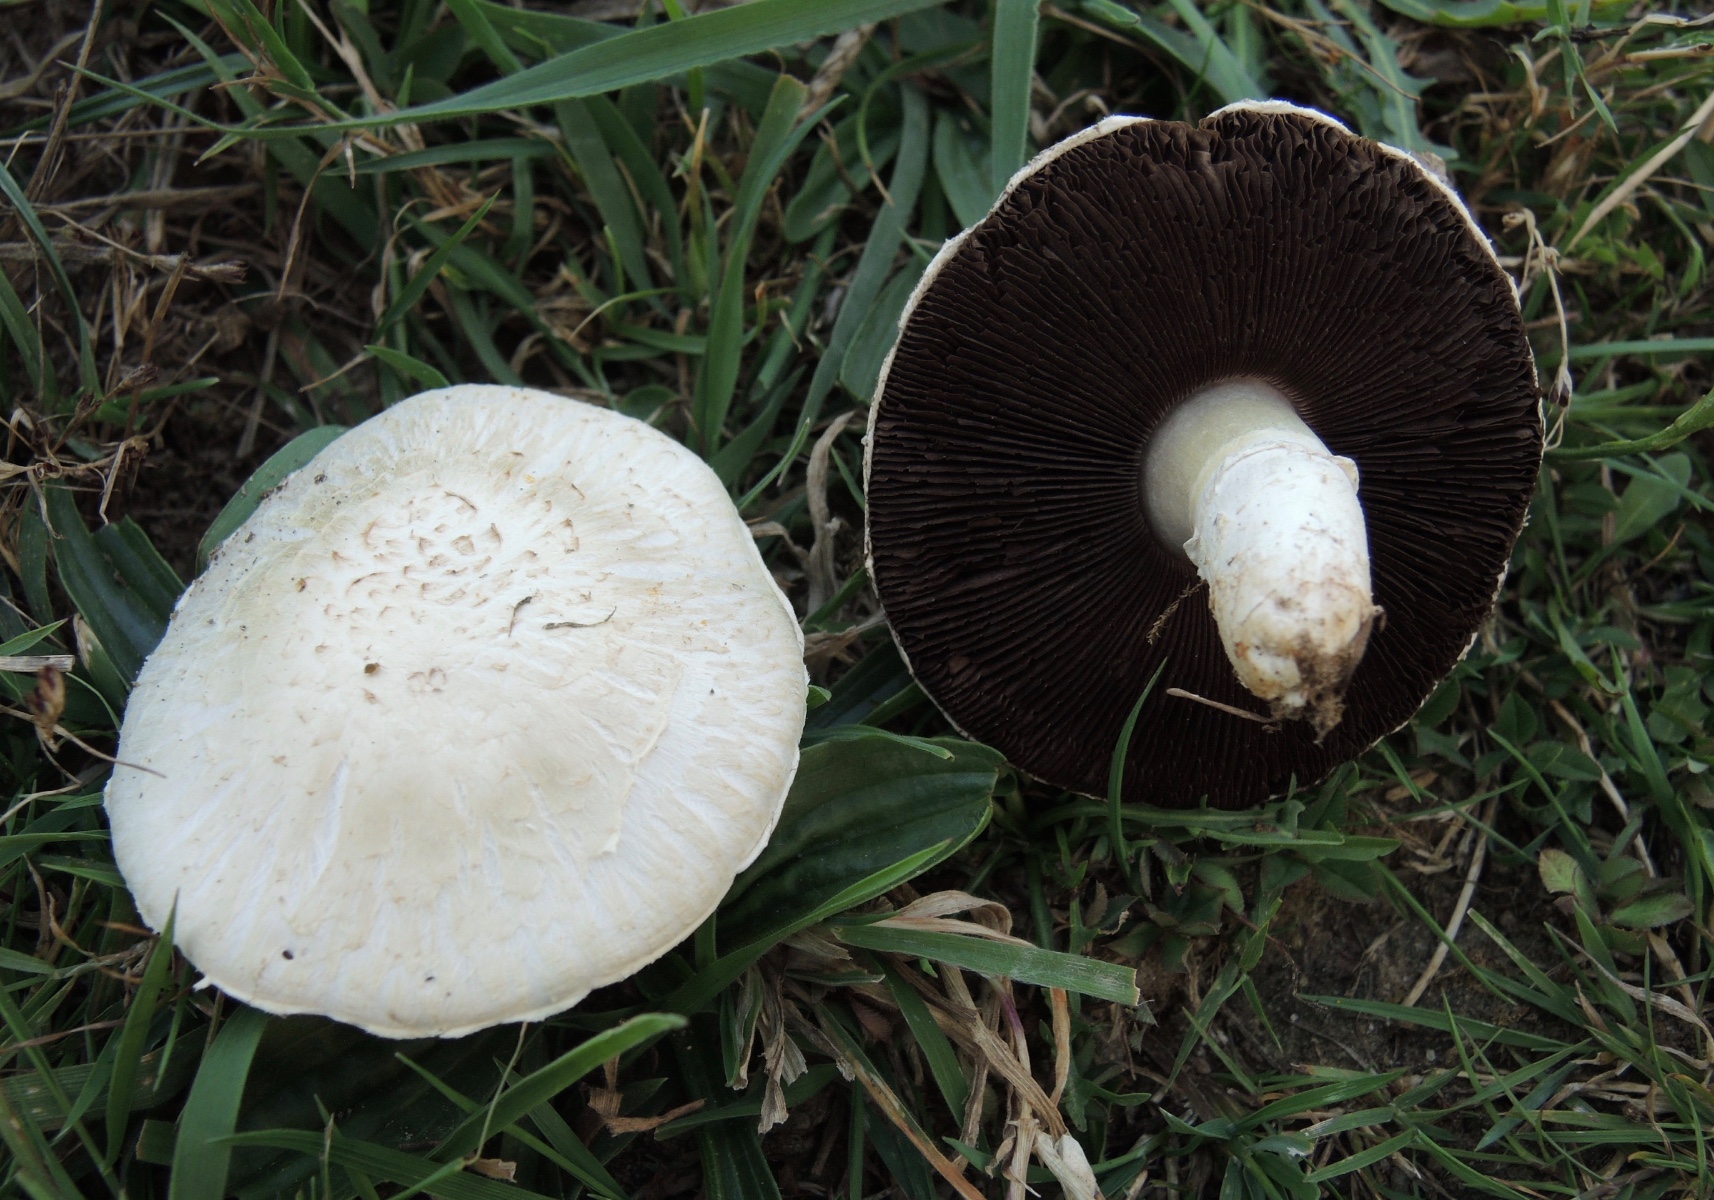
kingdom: Fungi
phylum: Basidiomycota
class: Agaricomycetes
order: Agaricales
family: Agaricaceae
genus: Agaricus
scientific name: Agaricus campestris
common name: mark-champignon
